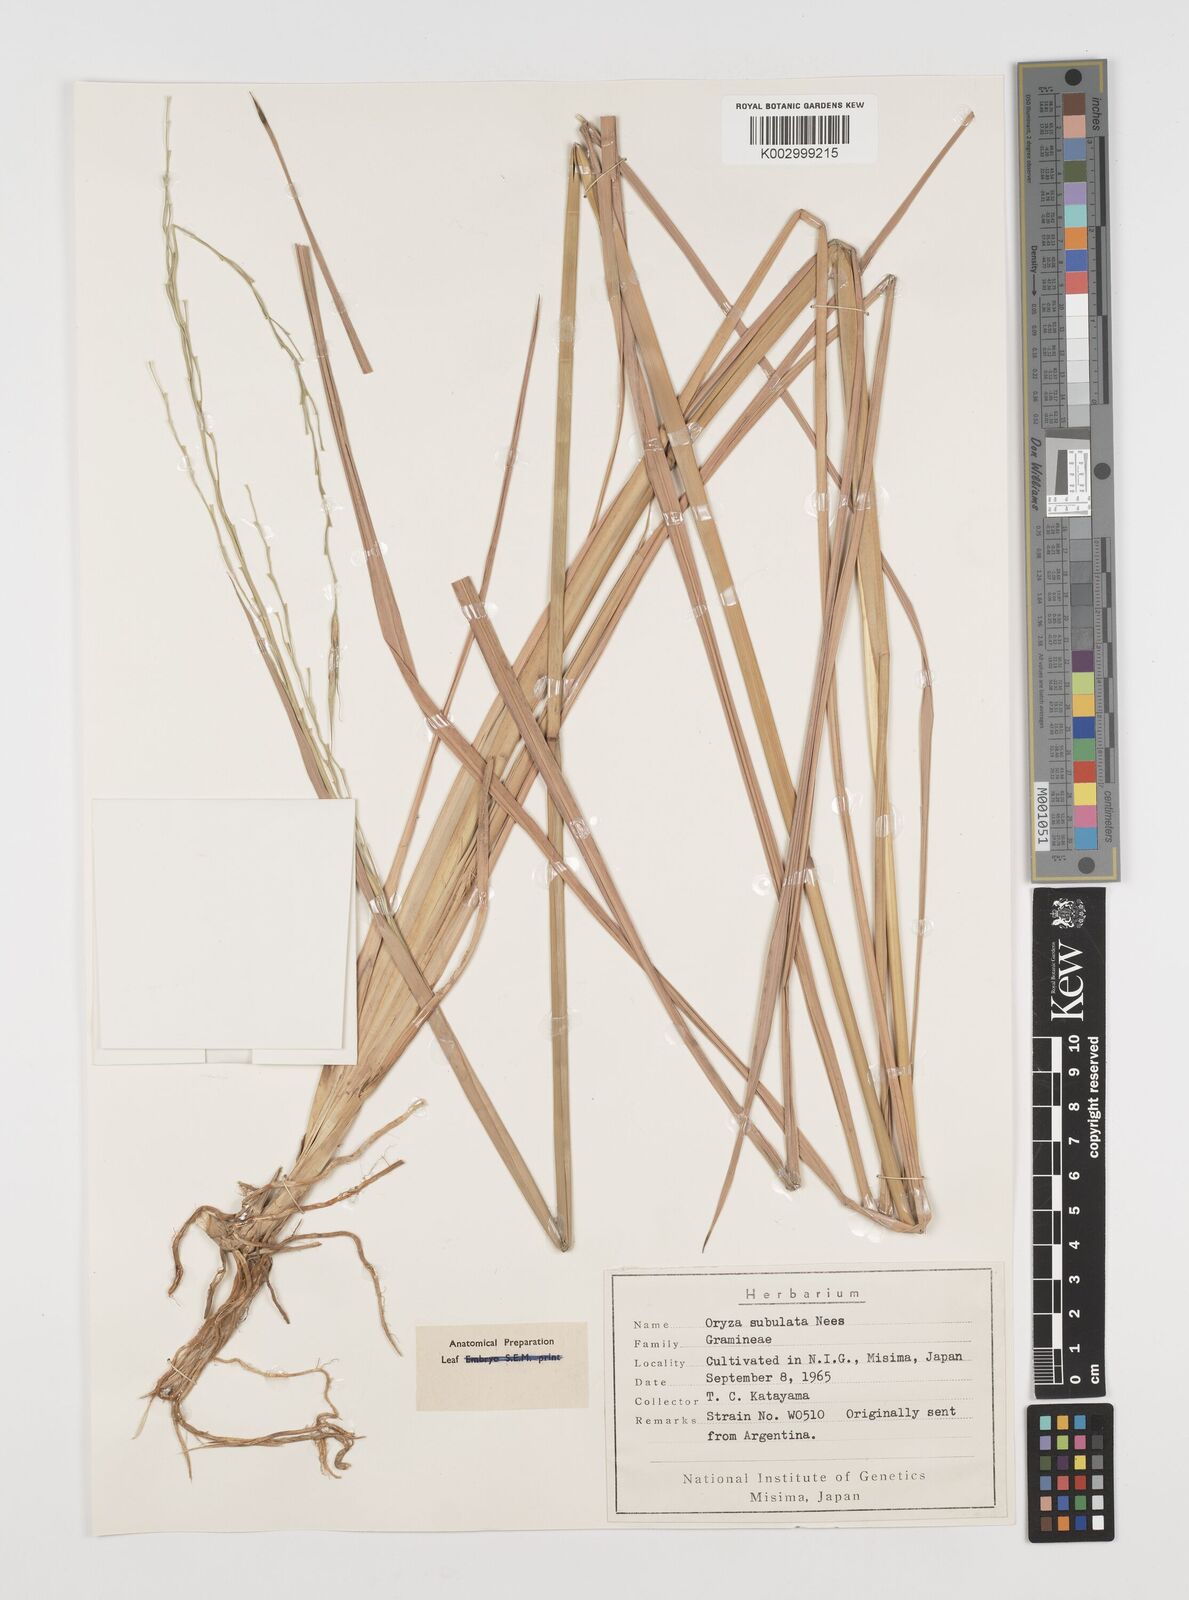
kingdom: Plantae
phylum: Tracheophyta
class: Liliopsida
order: Poales
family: Poaceae
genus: Rhynchoryza
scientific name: Rhynchoryza subulata
